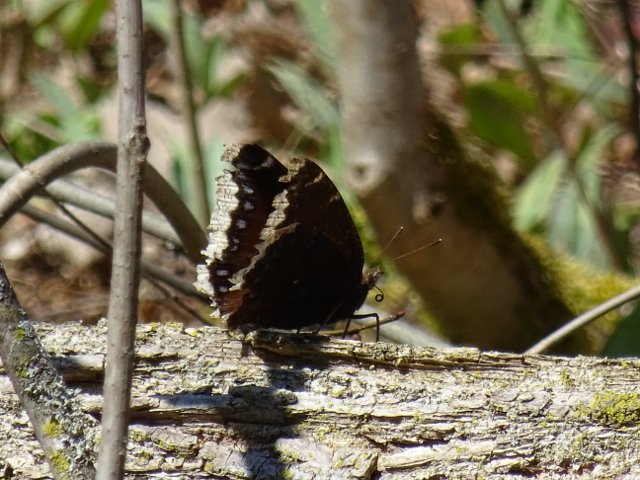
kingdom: Animalia
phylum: Arthropoda
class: Insecta
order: Lepidoptera
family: Nymphalidae
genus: Nymphalis
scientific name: Nymphalis antiopa
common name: Mourning Cloak
